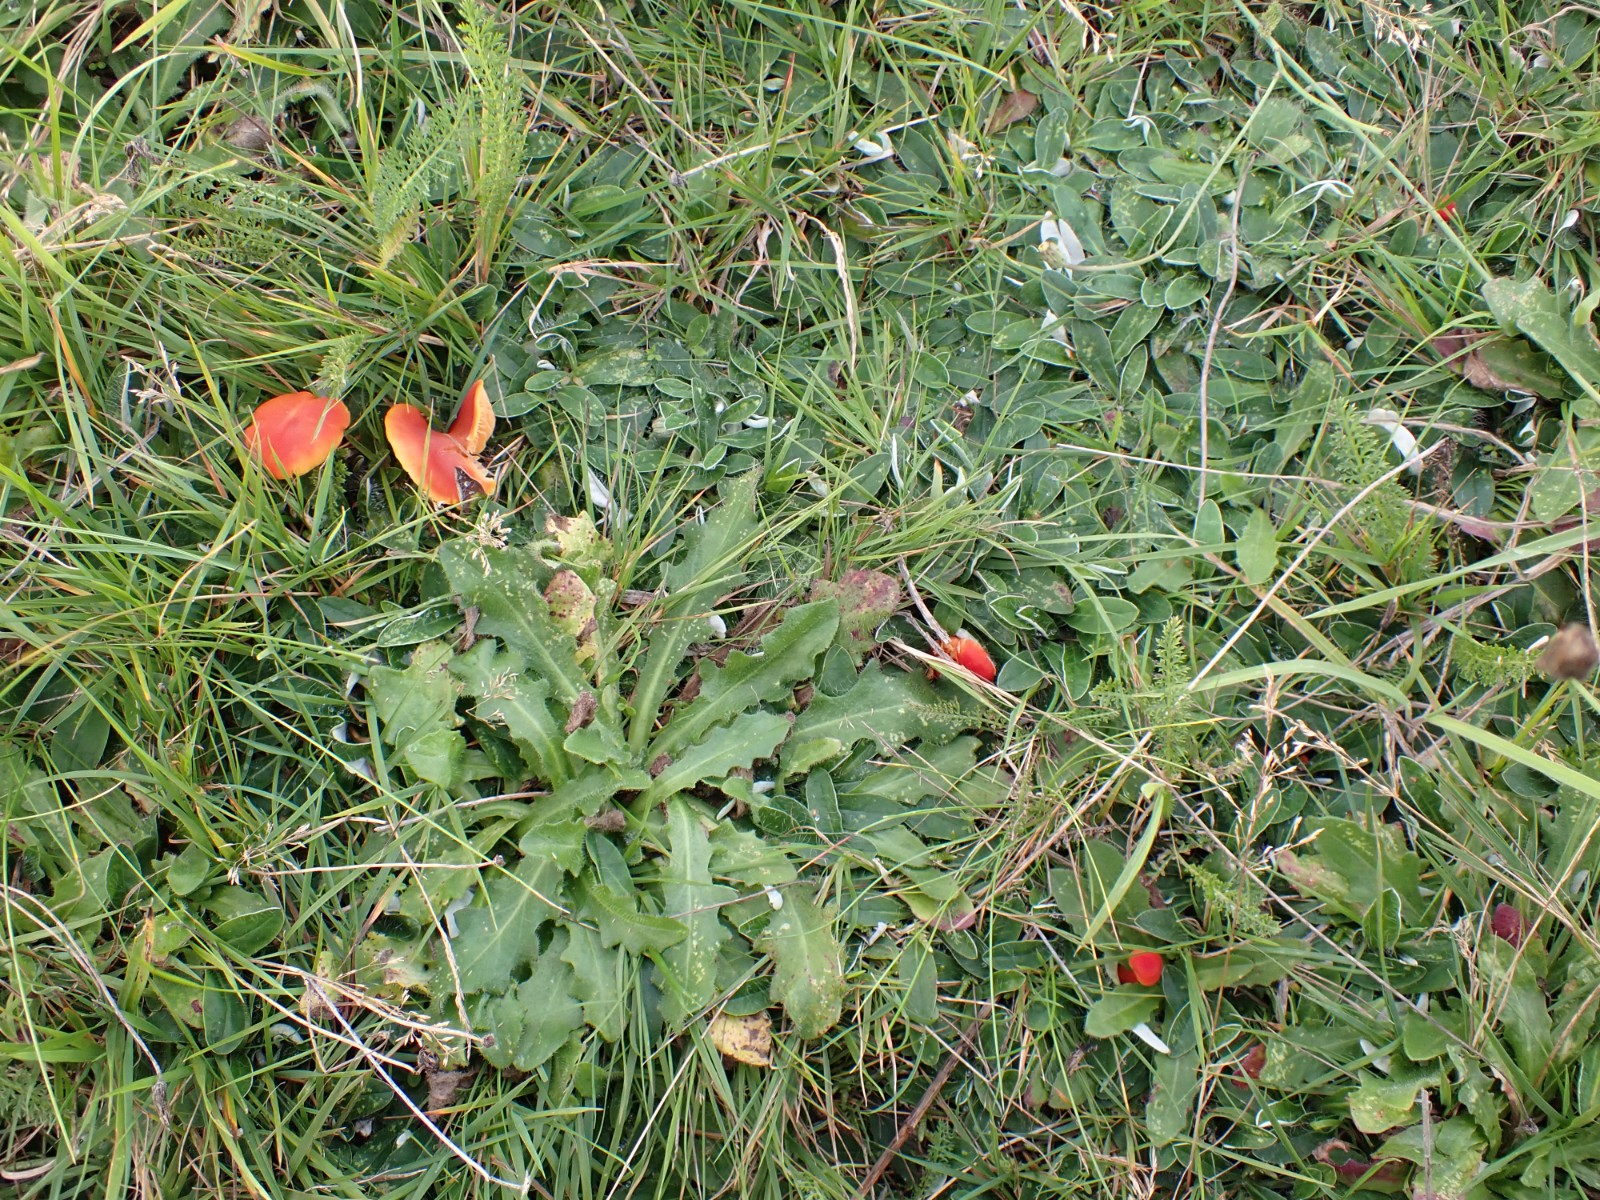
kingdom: Fungi
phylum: Basidiomycota
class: Agaricomycetes
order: Agaricales
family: Hygrophoraceae
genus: Hygrocybe
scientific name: Hygrocybe miniata
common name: mønje-vokshat
